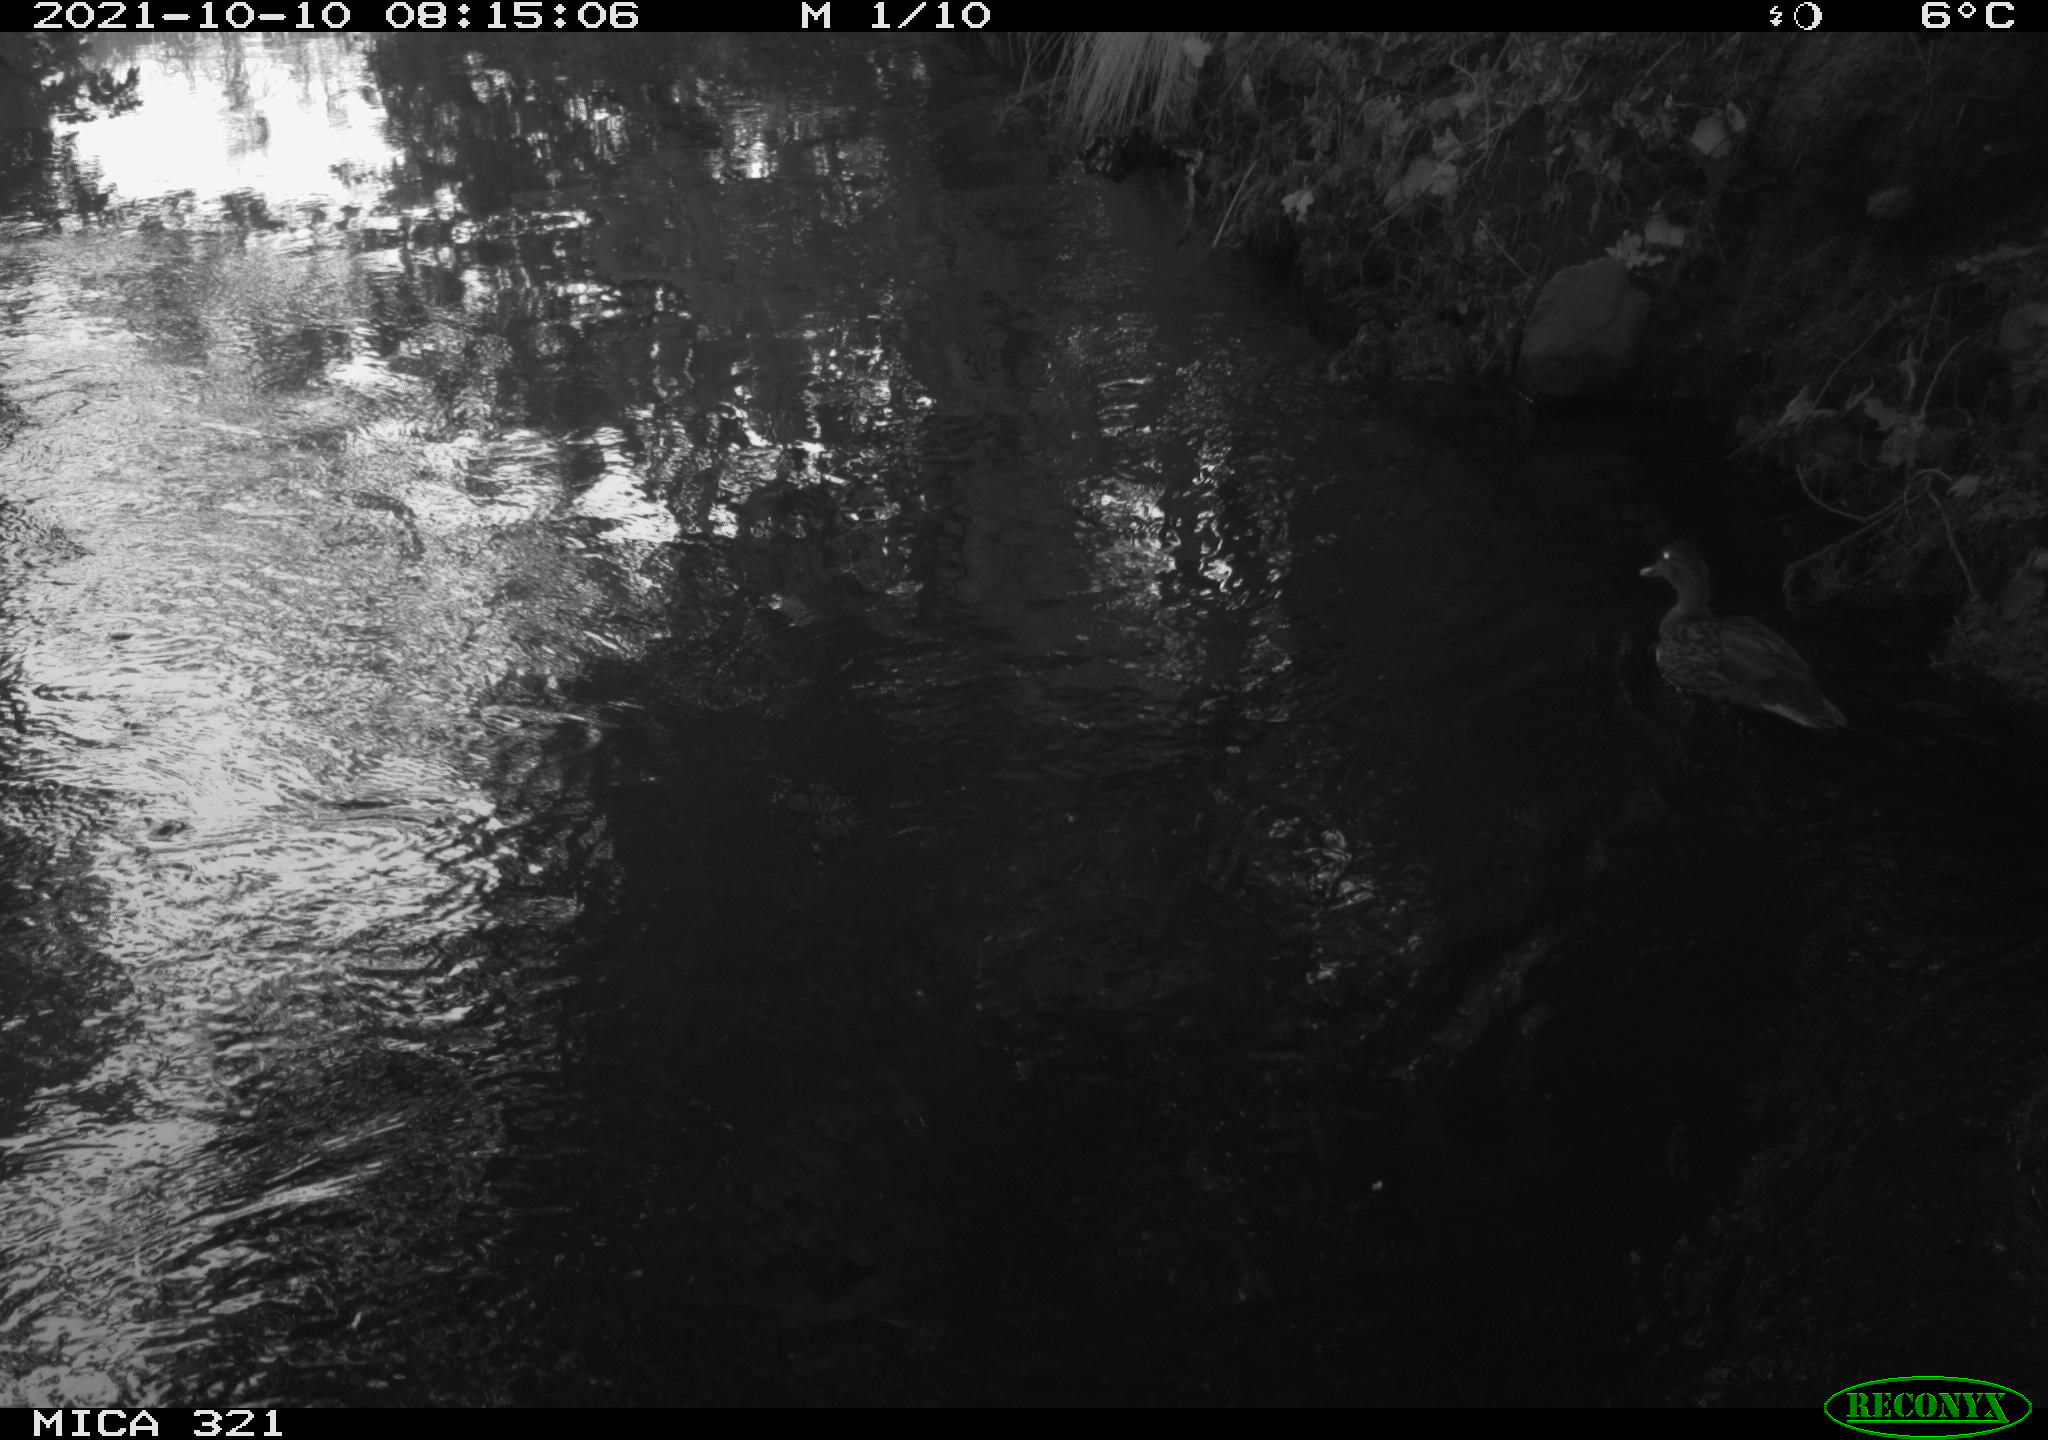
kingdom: Animalia
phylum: Chordata
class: Aves
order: Anseriformes
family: Anatidae
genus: Anas
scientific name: Anas platyrhynchos
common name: Mallard
